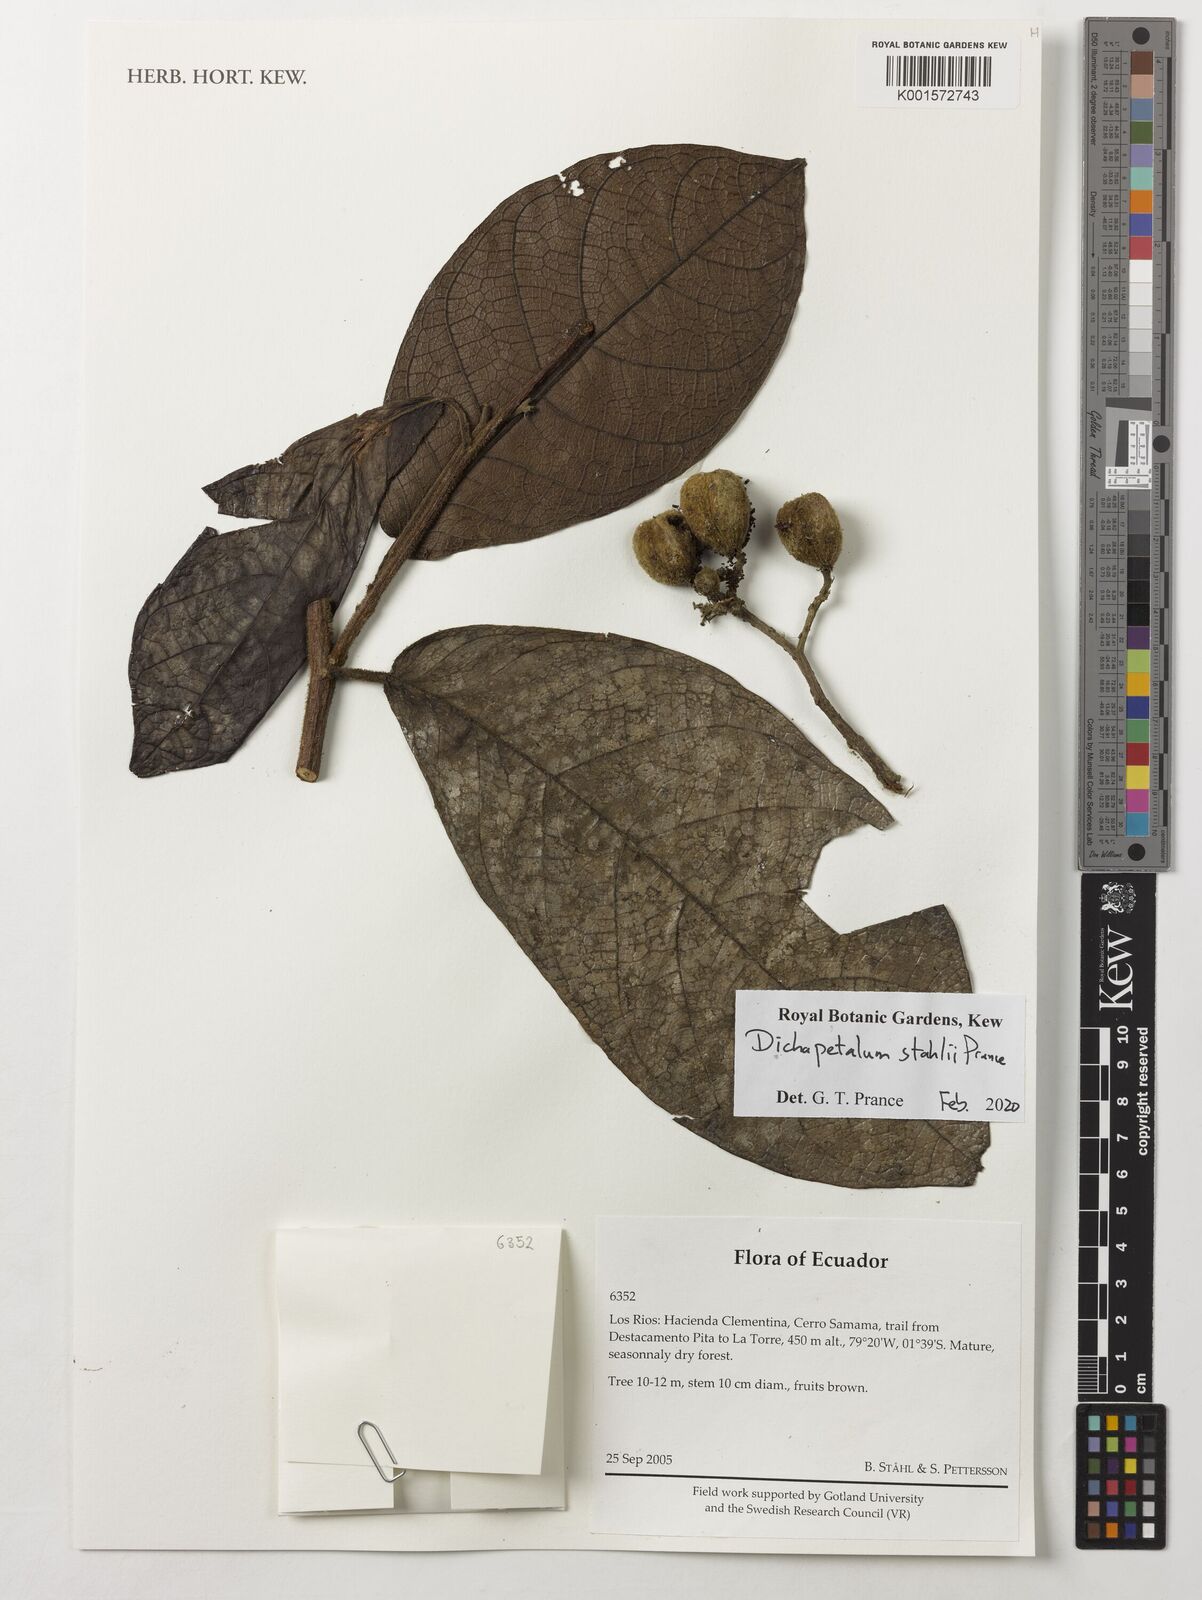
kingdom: Plantae
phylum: Tracheophyta
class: Magnoliopsida
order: Malpighiales
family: Dichapetalaceae
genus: Dichapetalum
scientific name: Dichapetalum
